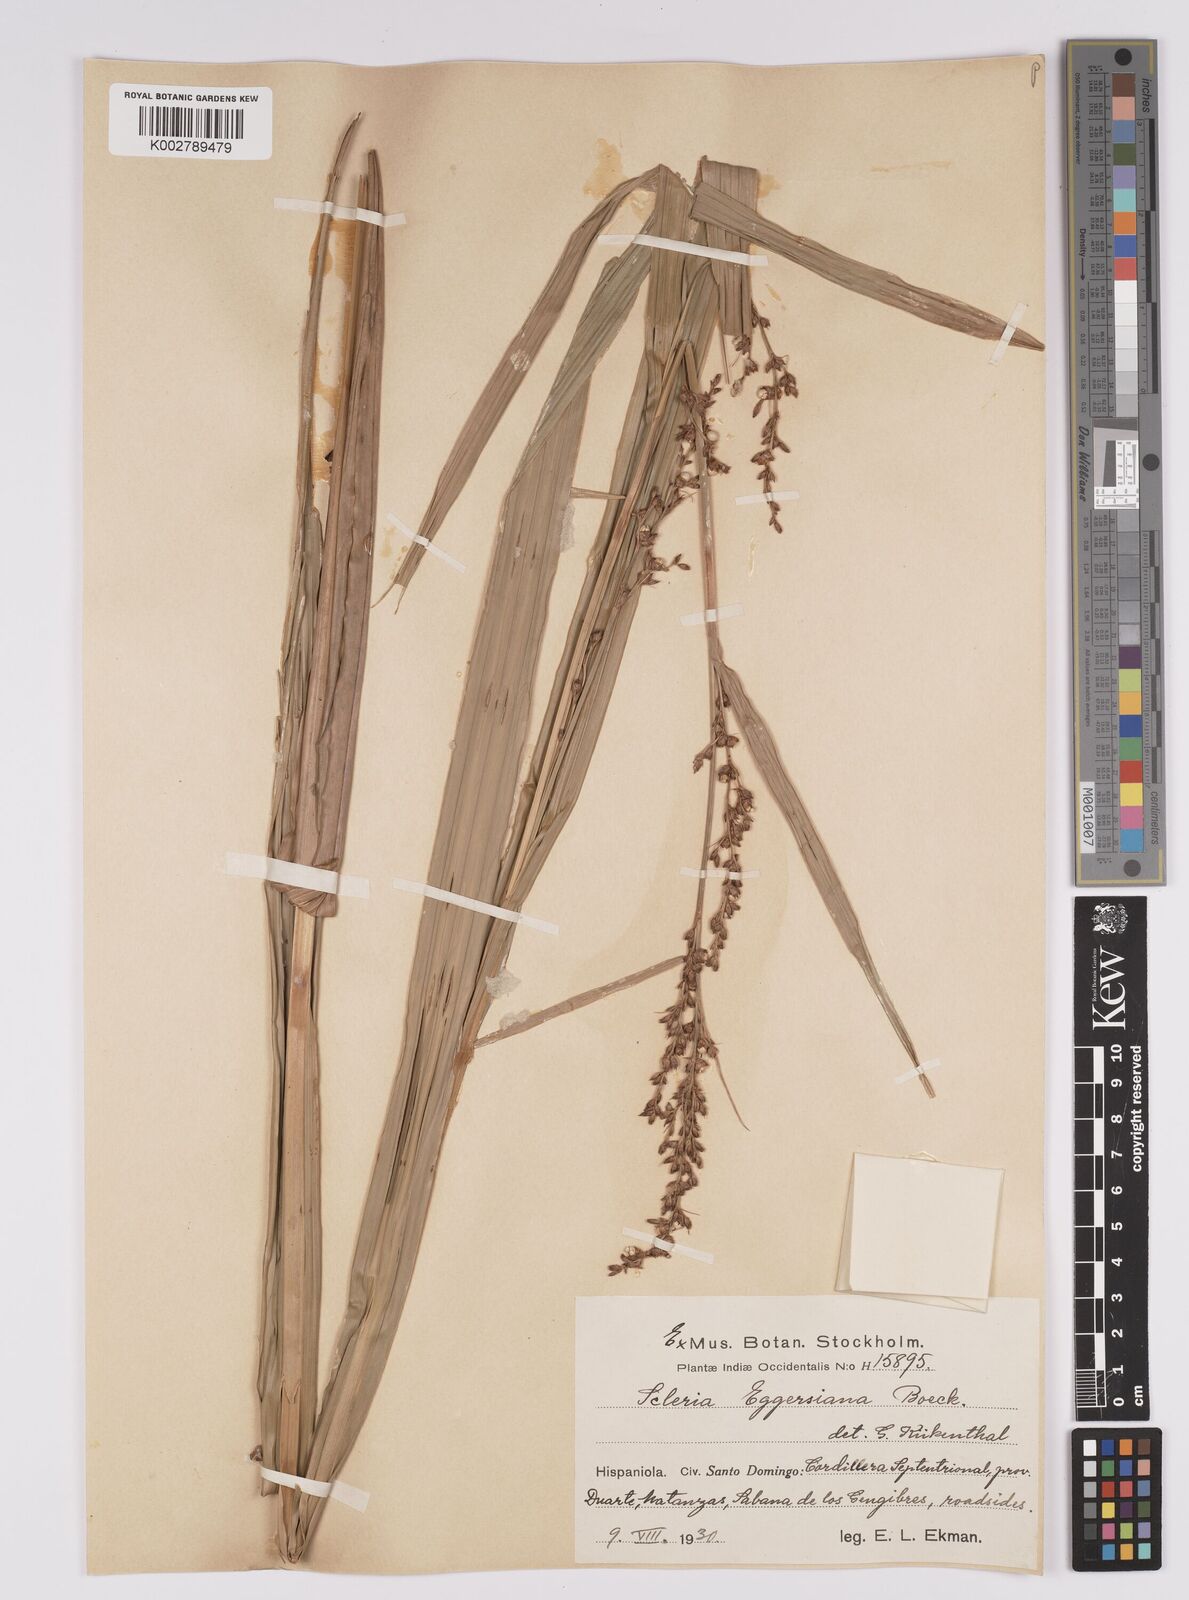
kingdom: Plantae
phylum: Tracheophyta
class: Liliopsida
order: Poales
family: Cyperaceae
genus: Scleria
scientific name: Scleria eggersiana
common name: Eggers' nutrush
